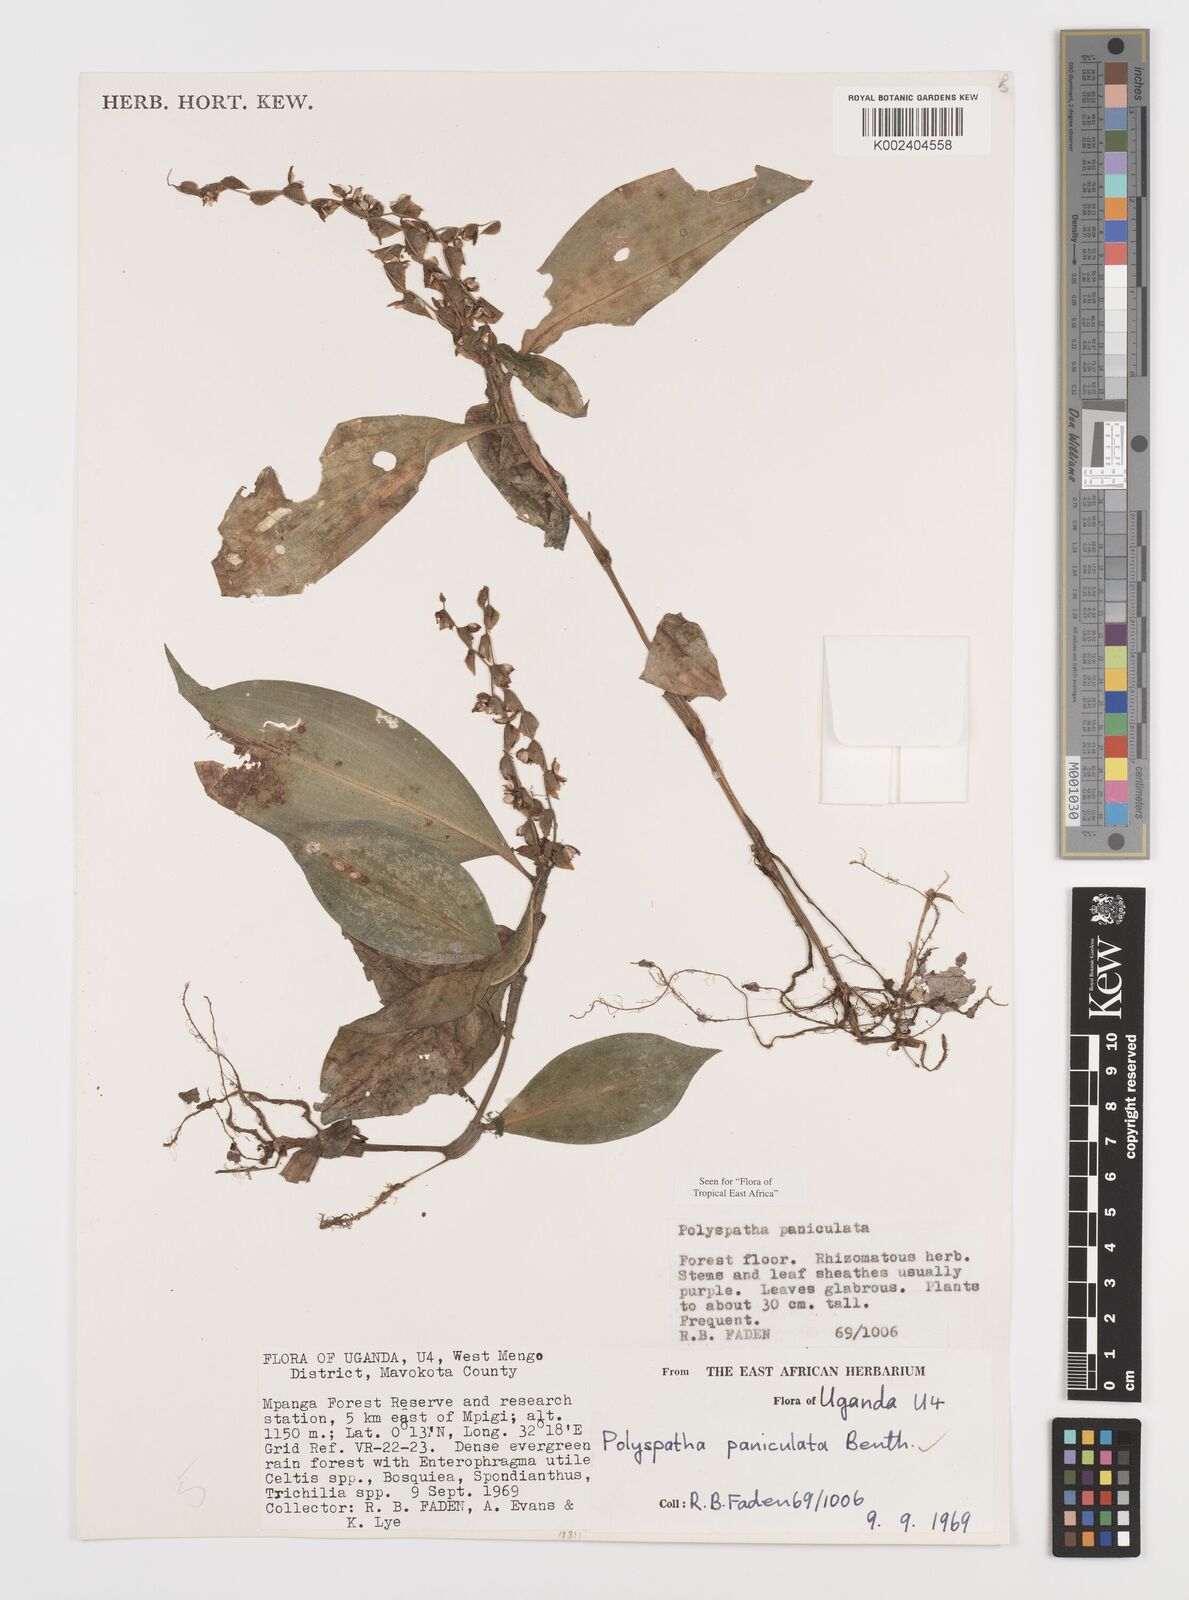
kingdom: Plantae
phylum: Tracheophyta
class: Liliopsida
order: Commelinales
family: Commelinaceae
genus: Polyspatha
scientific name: Polyspatha paniculata
